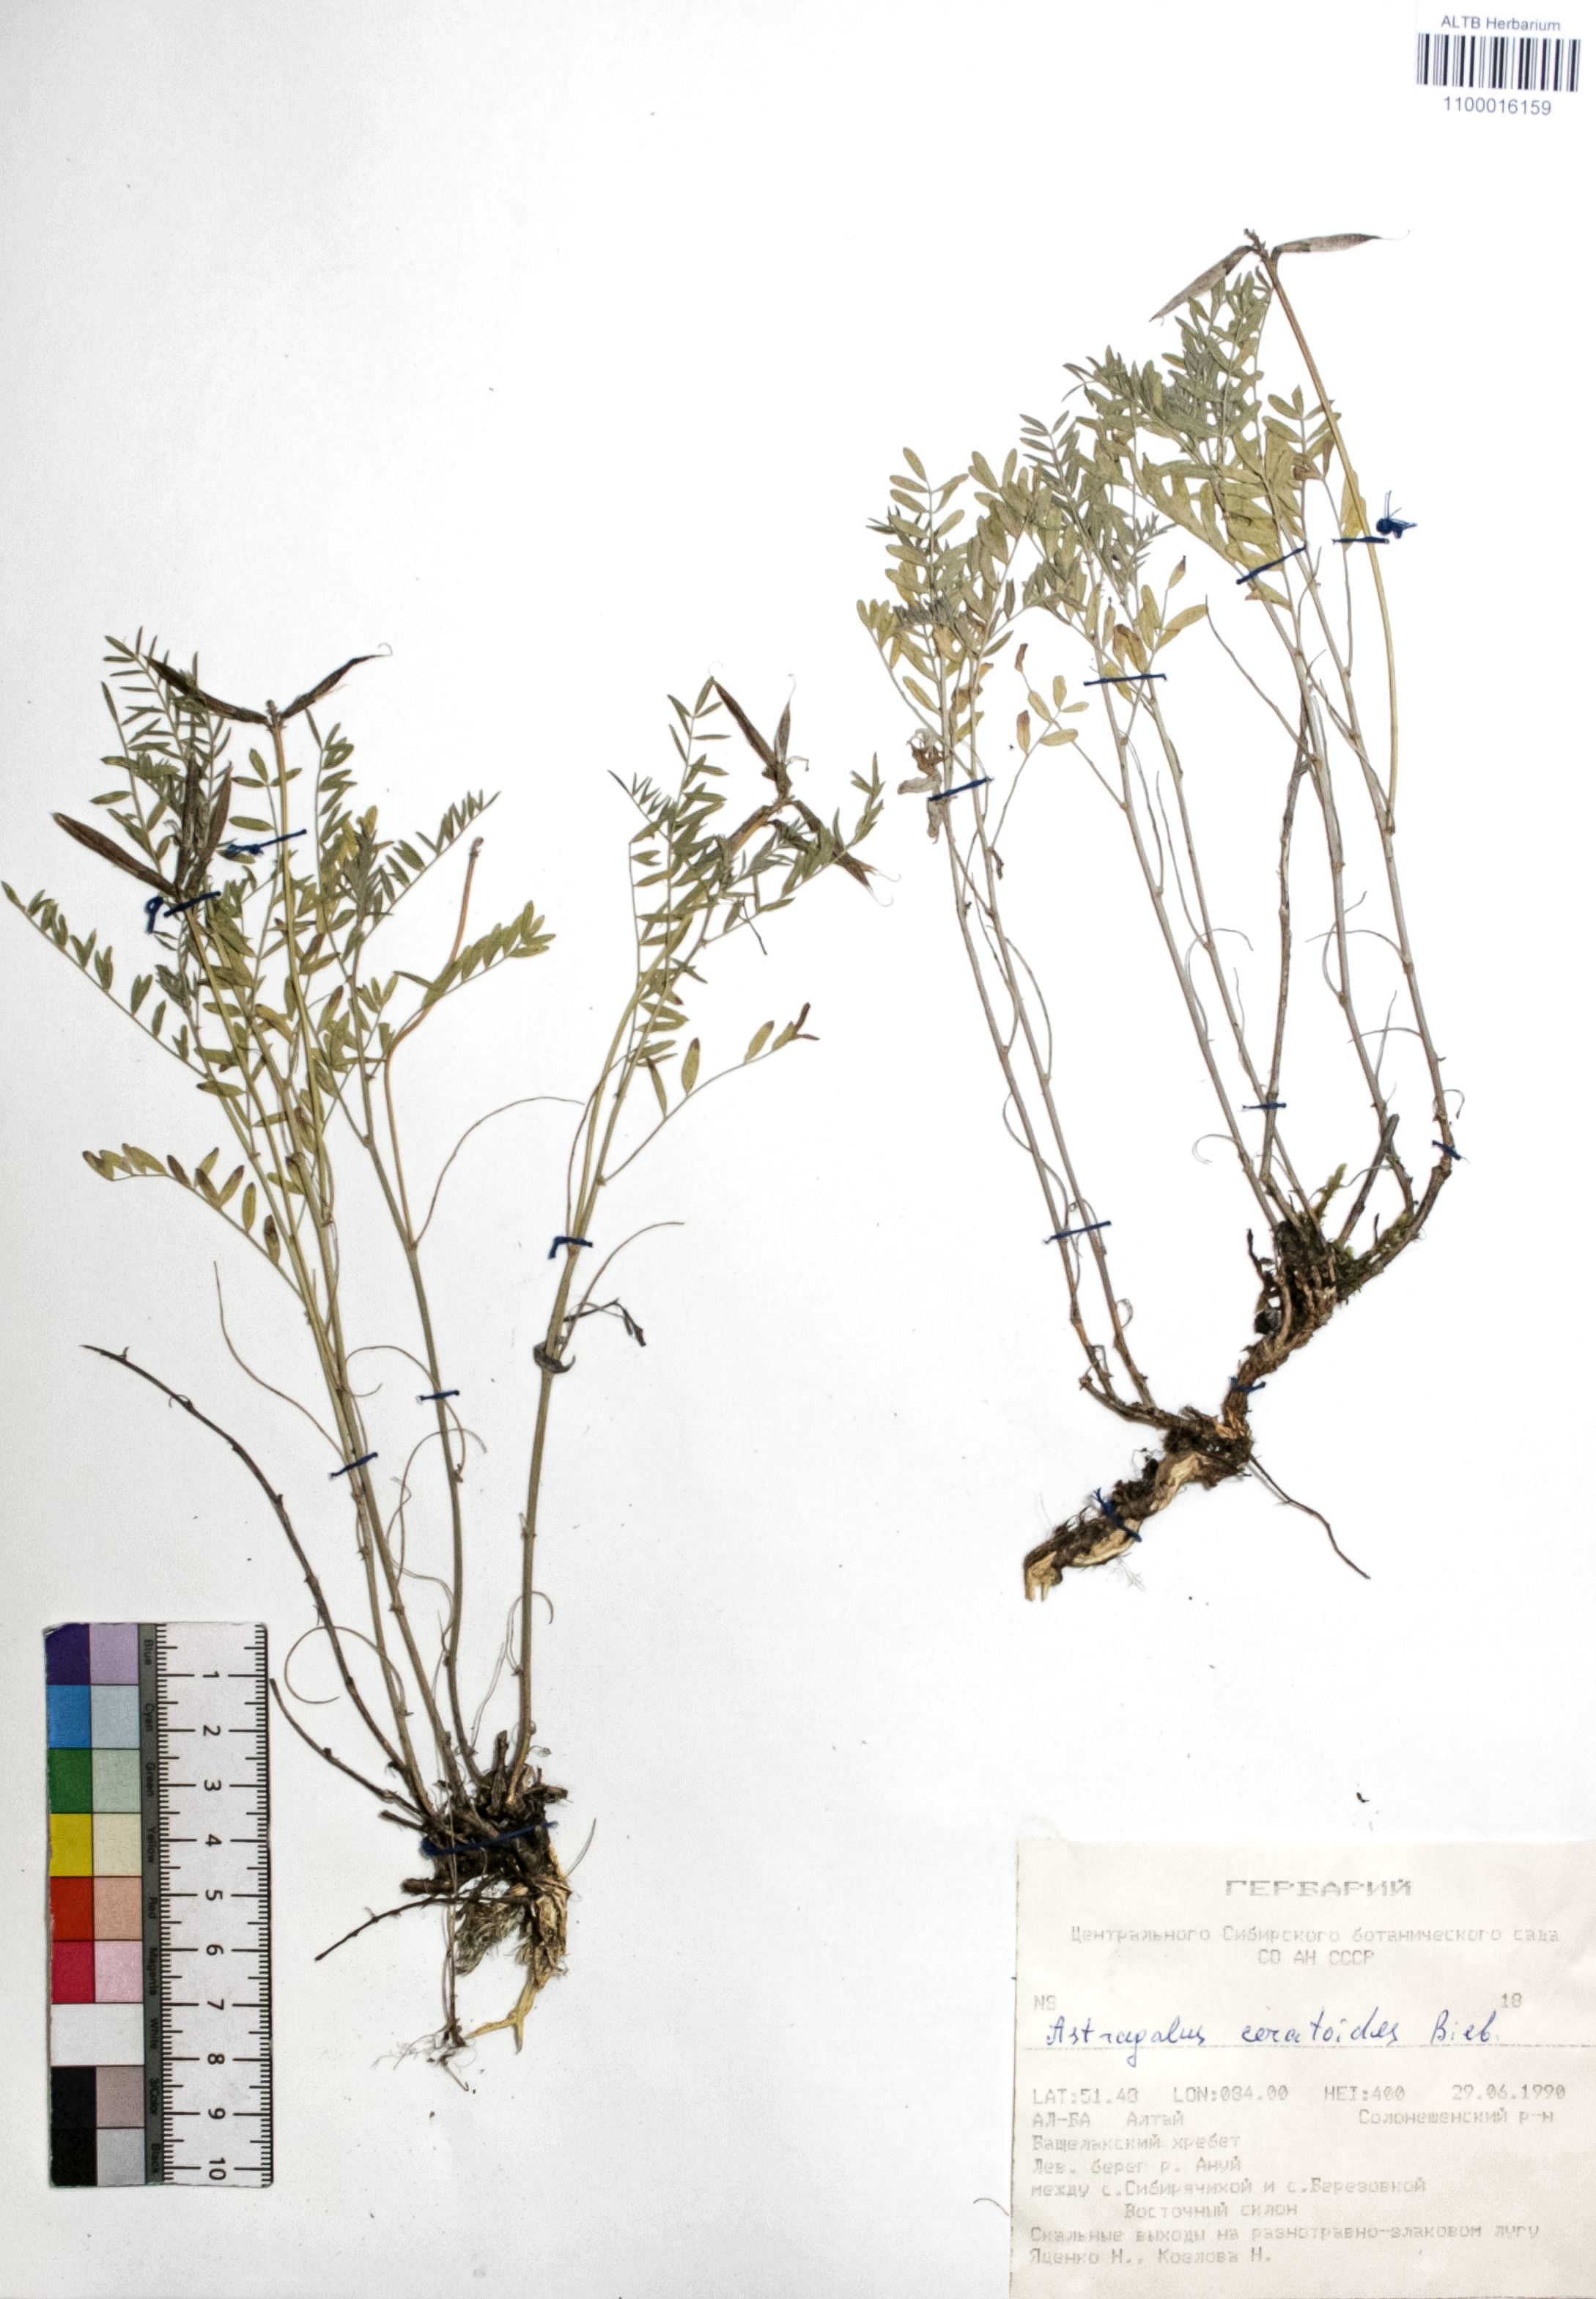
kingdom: Plantae
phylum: Tracheophyta
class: Magnoliopsida
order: Fabales
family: Fabaceae
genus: Astragalus
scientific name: Astragalus ceratoides
